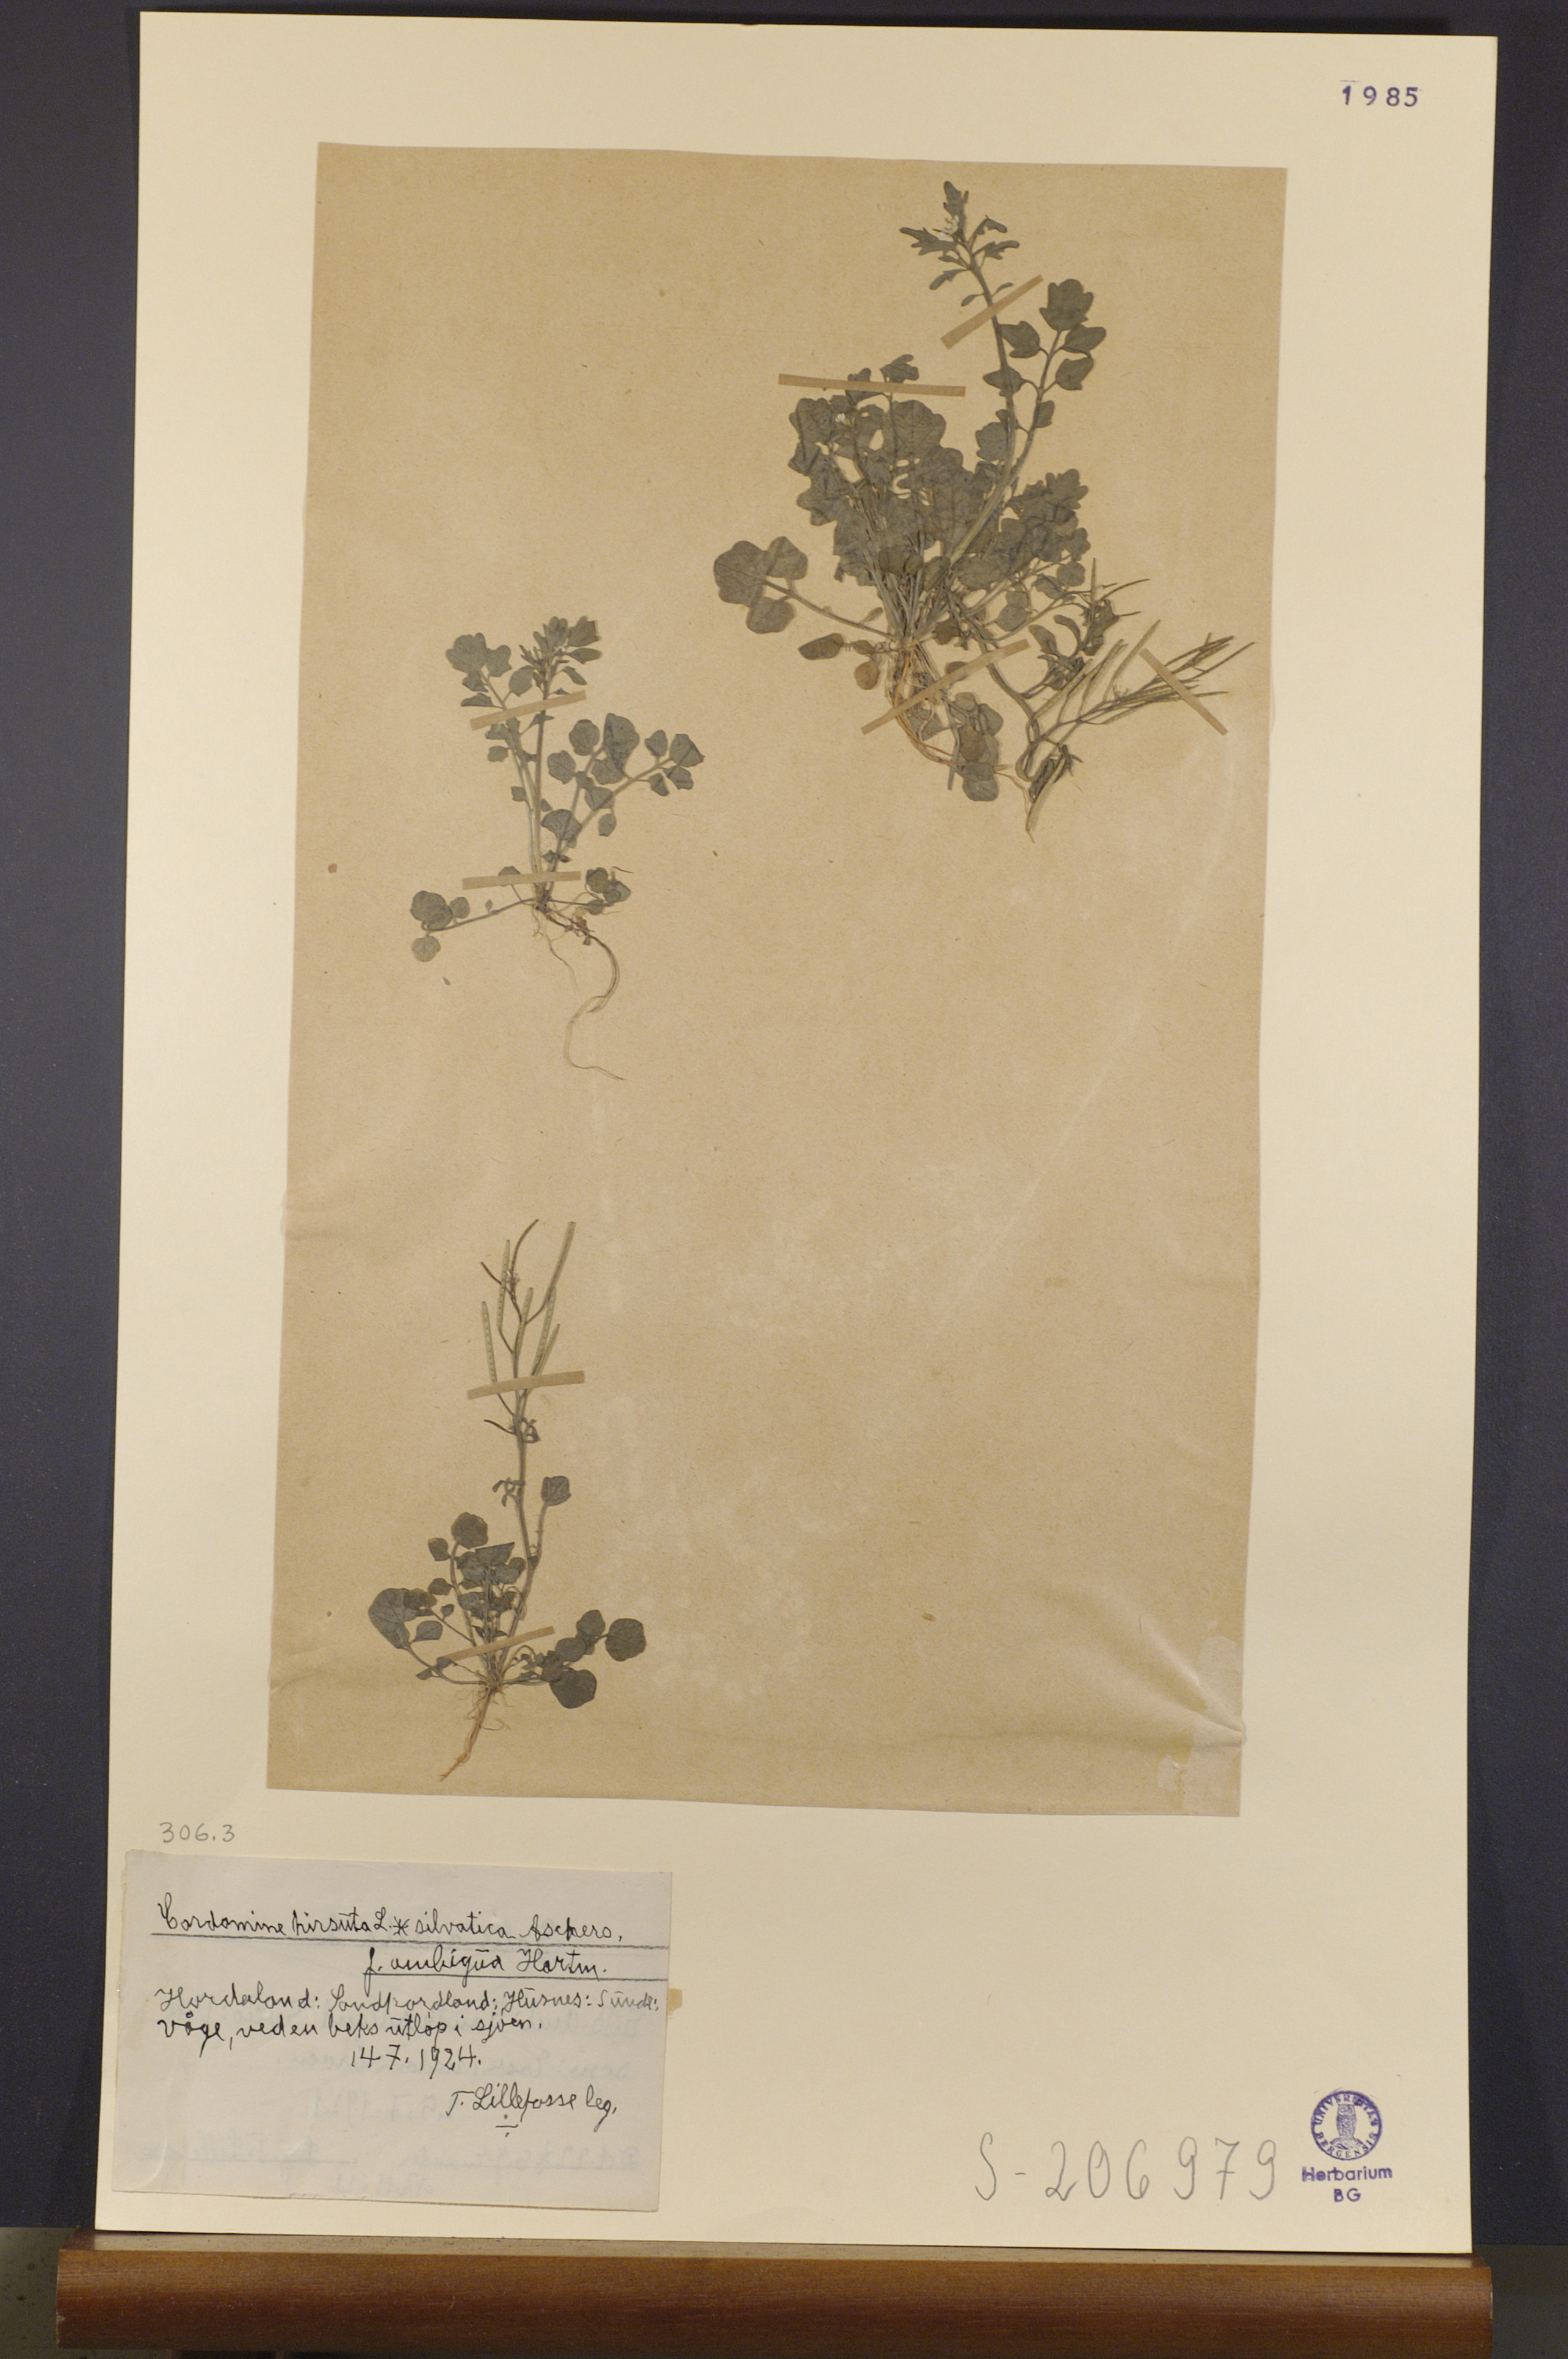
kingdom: Plantae
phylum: Tracheophyta
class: Magnoliopsida
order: Brassicales
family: Brassicaceae
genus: Cardamine
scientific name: Cardamine flexuosa
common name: Woodland bittercress
